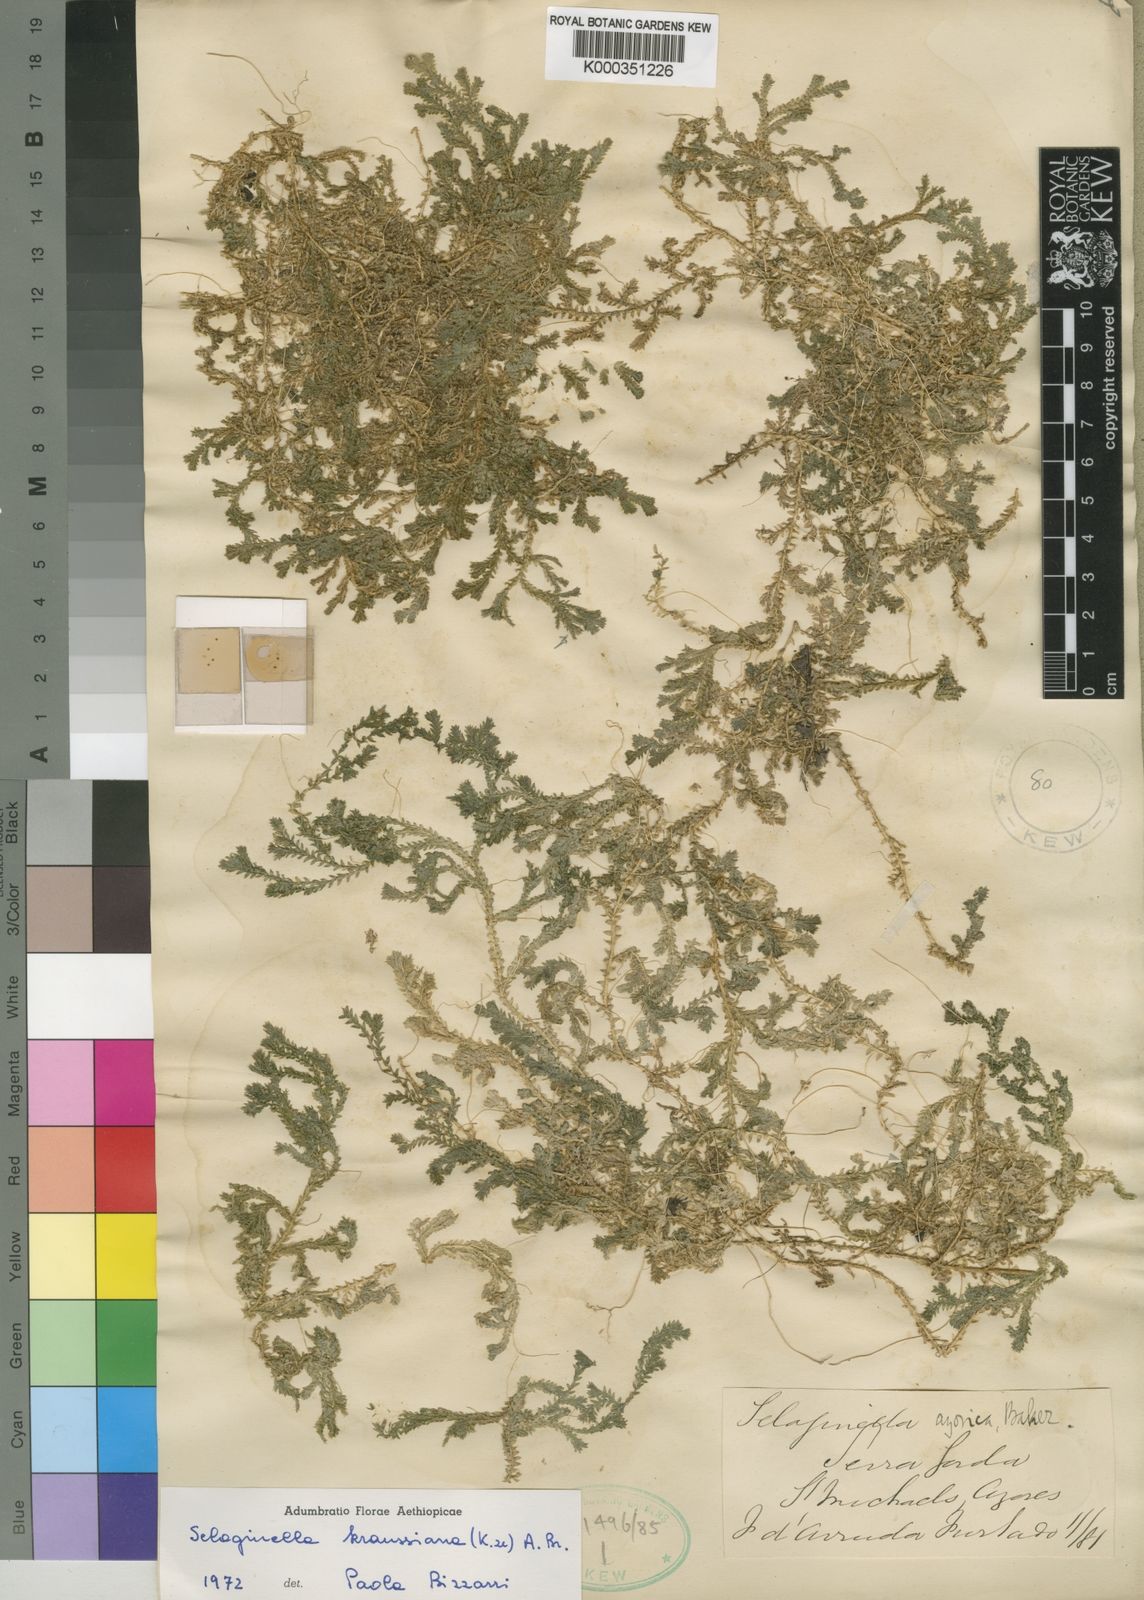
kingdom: Plantae
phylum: Tracheophyta
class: Lycopodiopsida
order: Selaginellales
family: Selaginellaceae
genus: Selaginella
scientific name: Selaginella kraussiana
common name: Krauss' spikemoss
